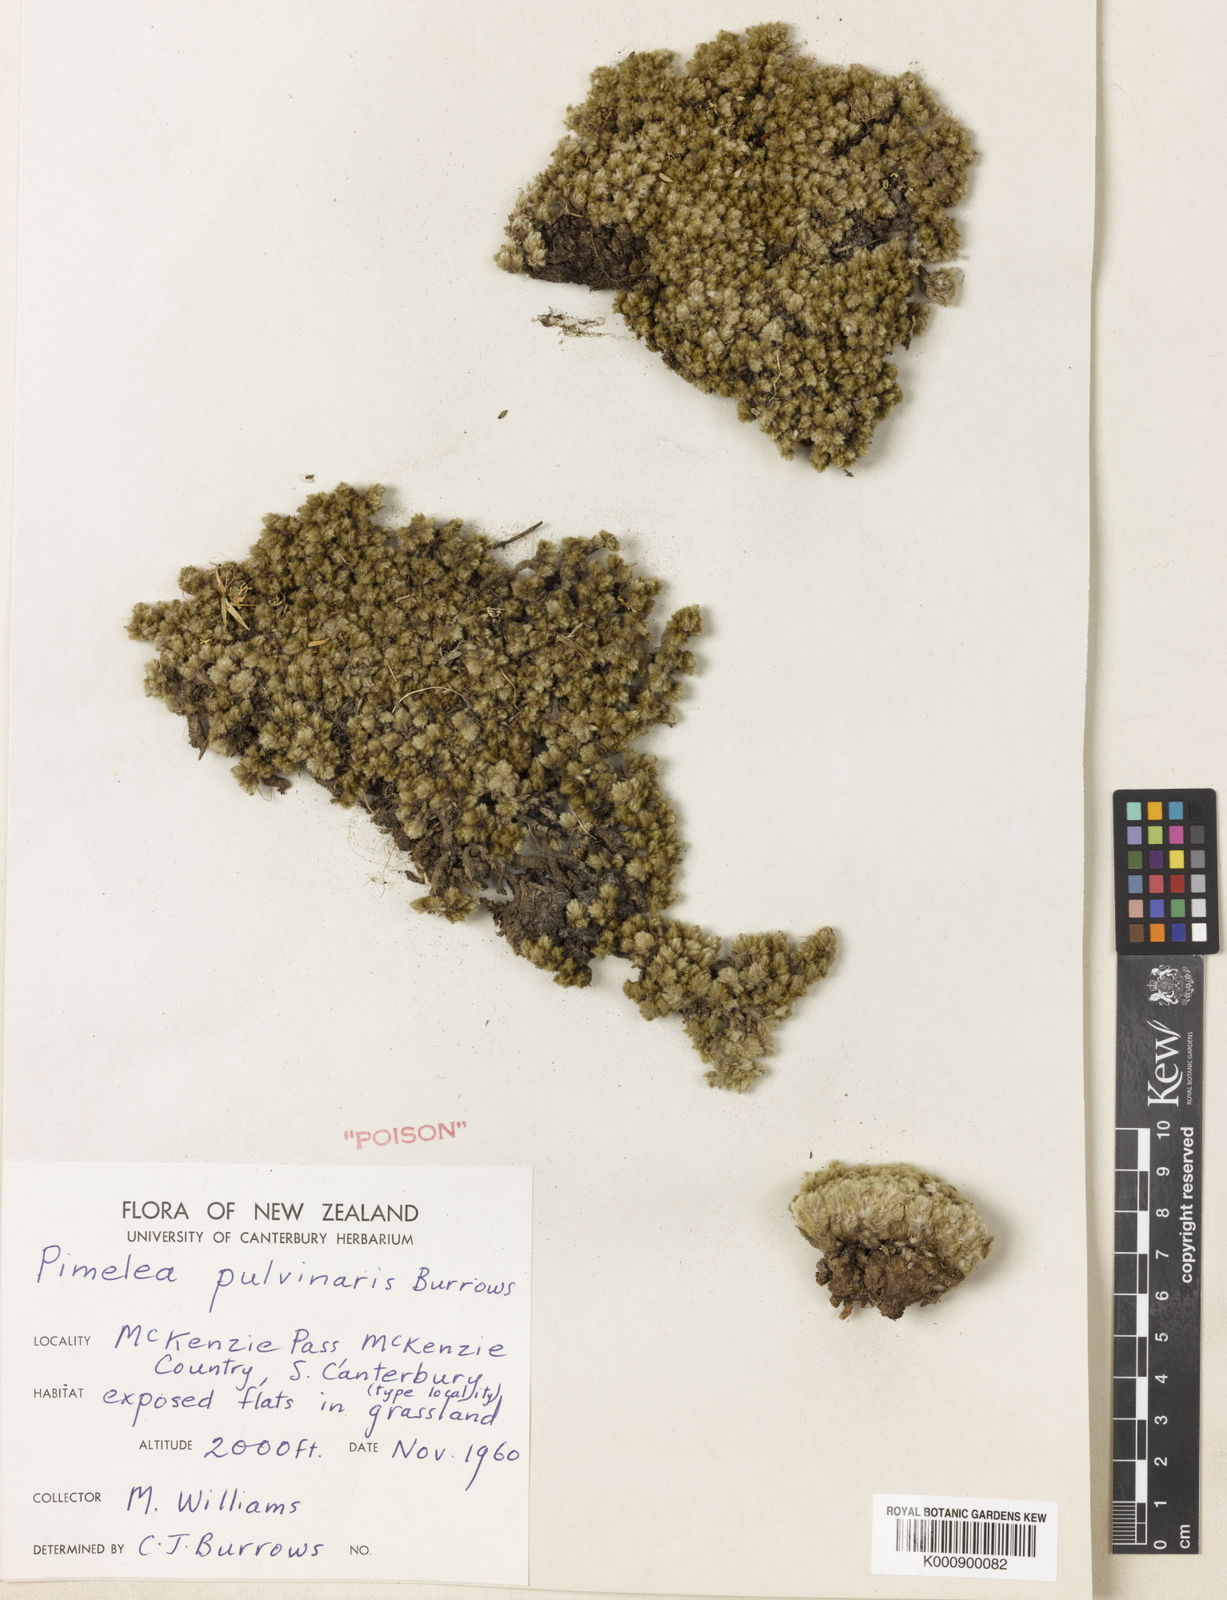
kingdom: Plantae
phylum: Tracheophyta
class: Magnoliopsida
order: Malvales
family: Thymelaeaceae
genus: Pimelea
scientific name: Pimelea sericeovillosa
